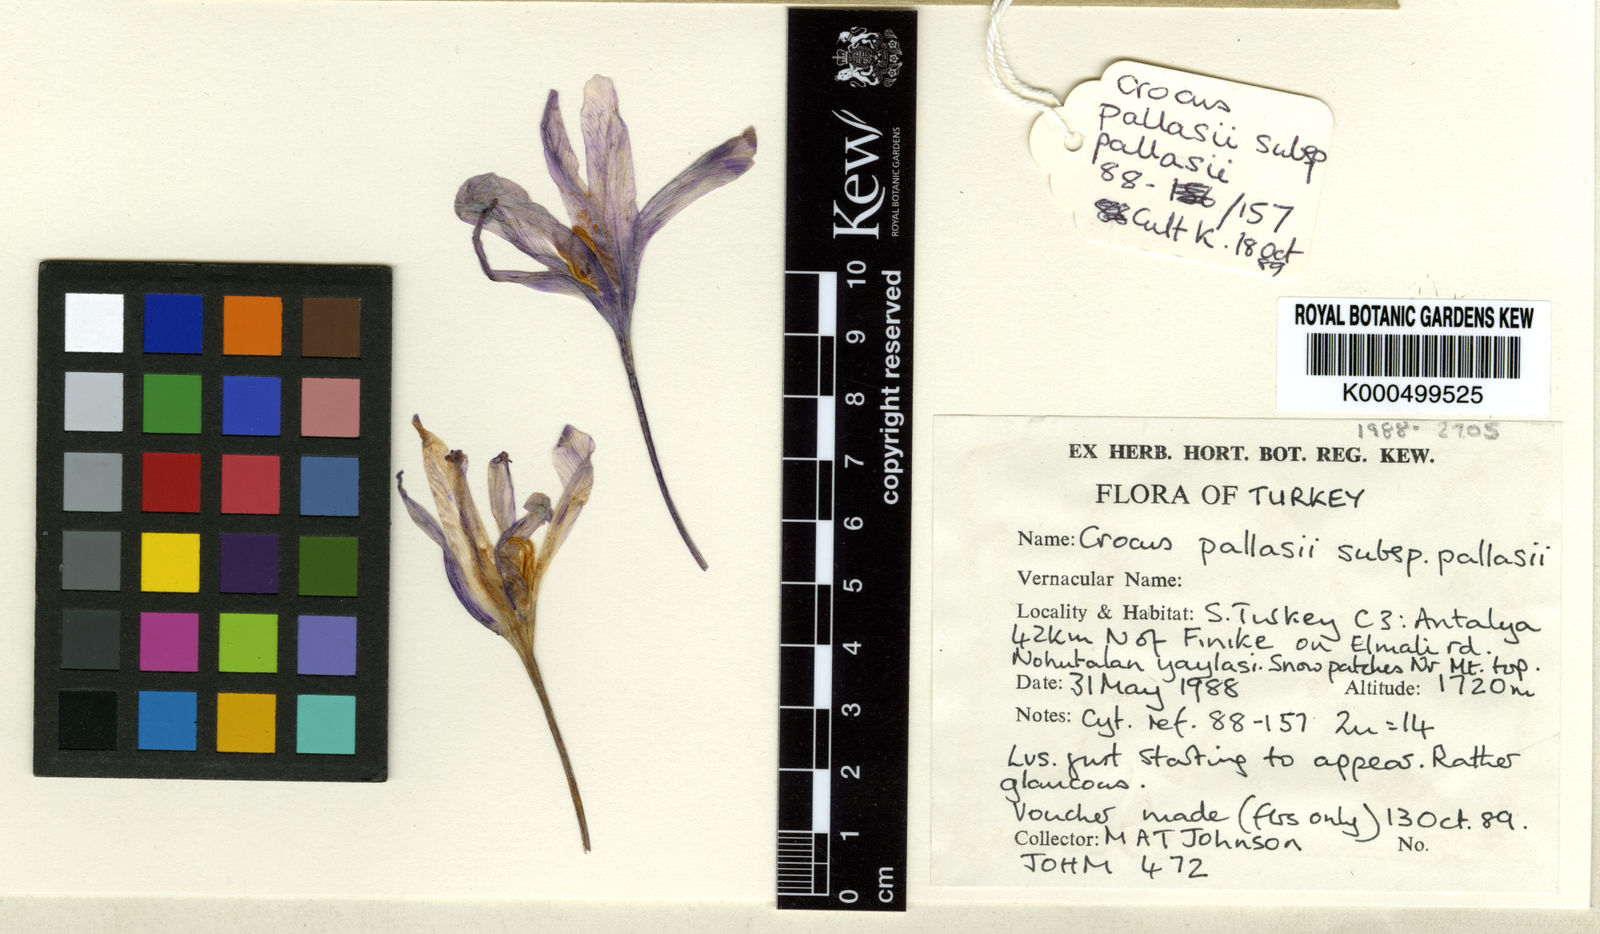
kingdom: Plantae
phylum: Tracheophyta
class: Liliopsida
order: Asparagales
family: Iridaceae
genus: Crocus
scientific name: Crocus asumaniae
